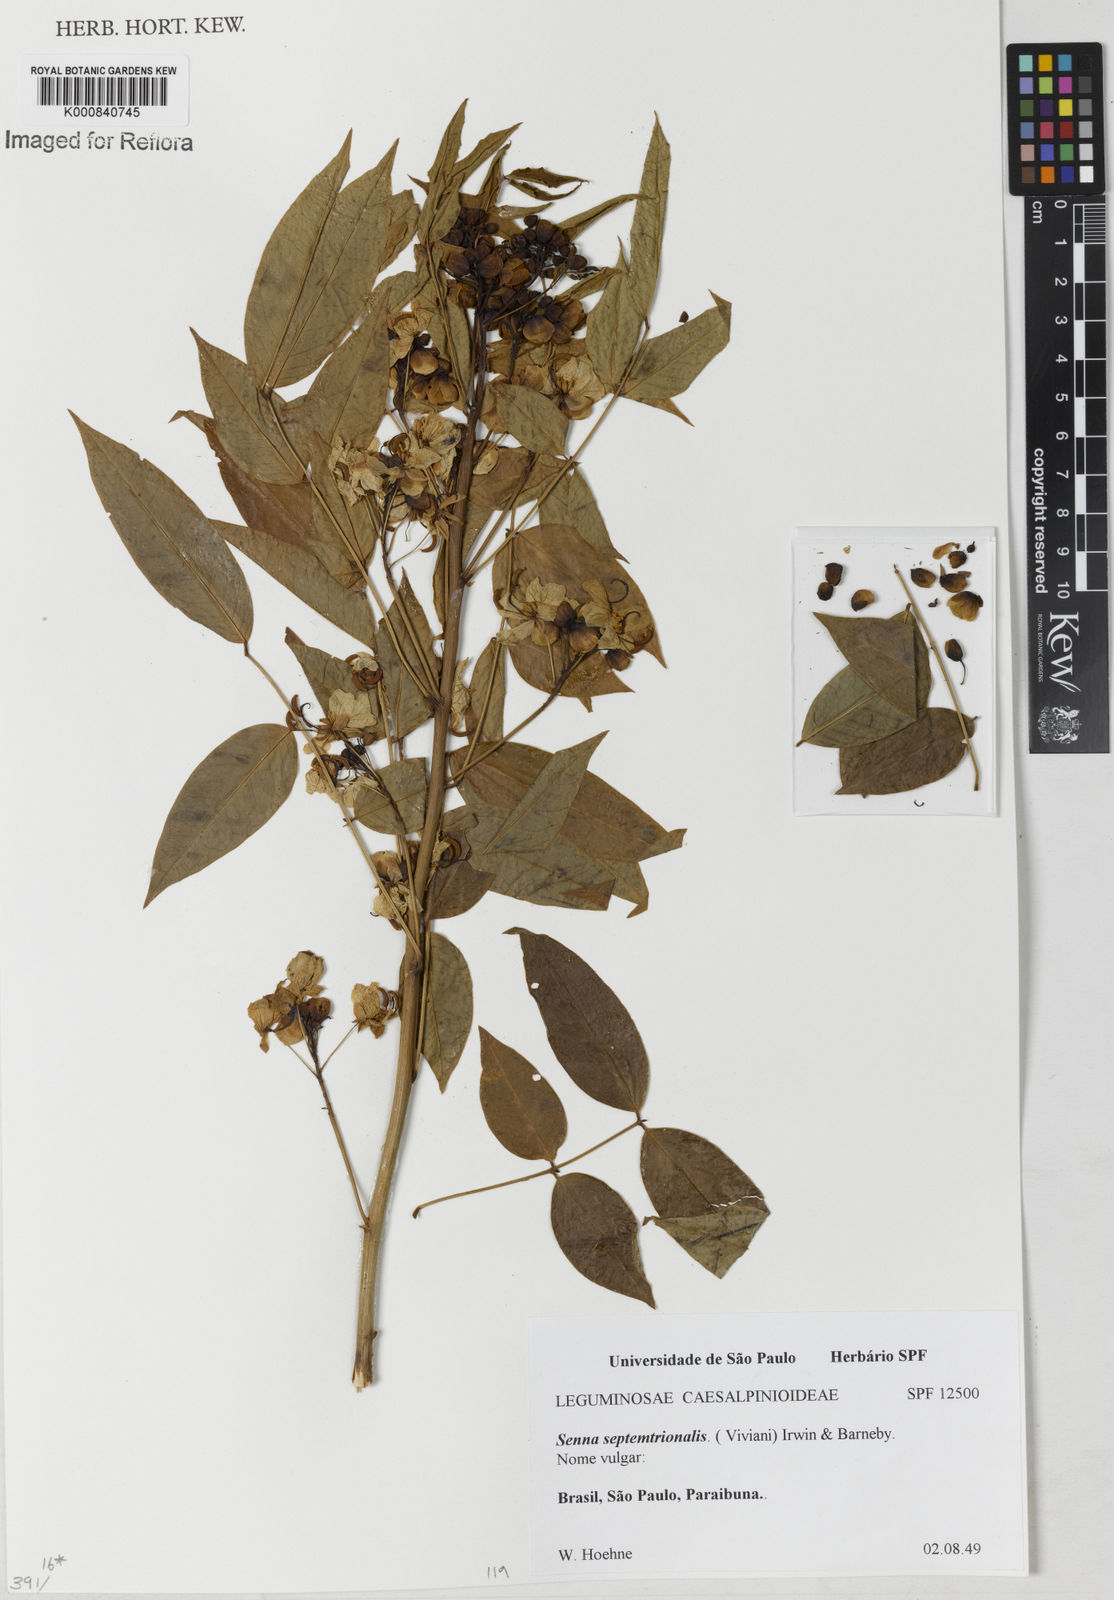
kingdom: Plantae
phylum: Tracheophyta
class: Magnoliopsida
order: Fabales
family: Fabaceae
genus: Senna
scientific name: Senna septemtrionalis
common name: Arsenic bush
